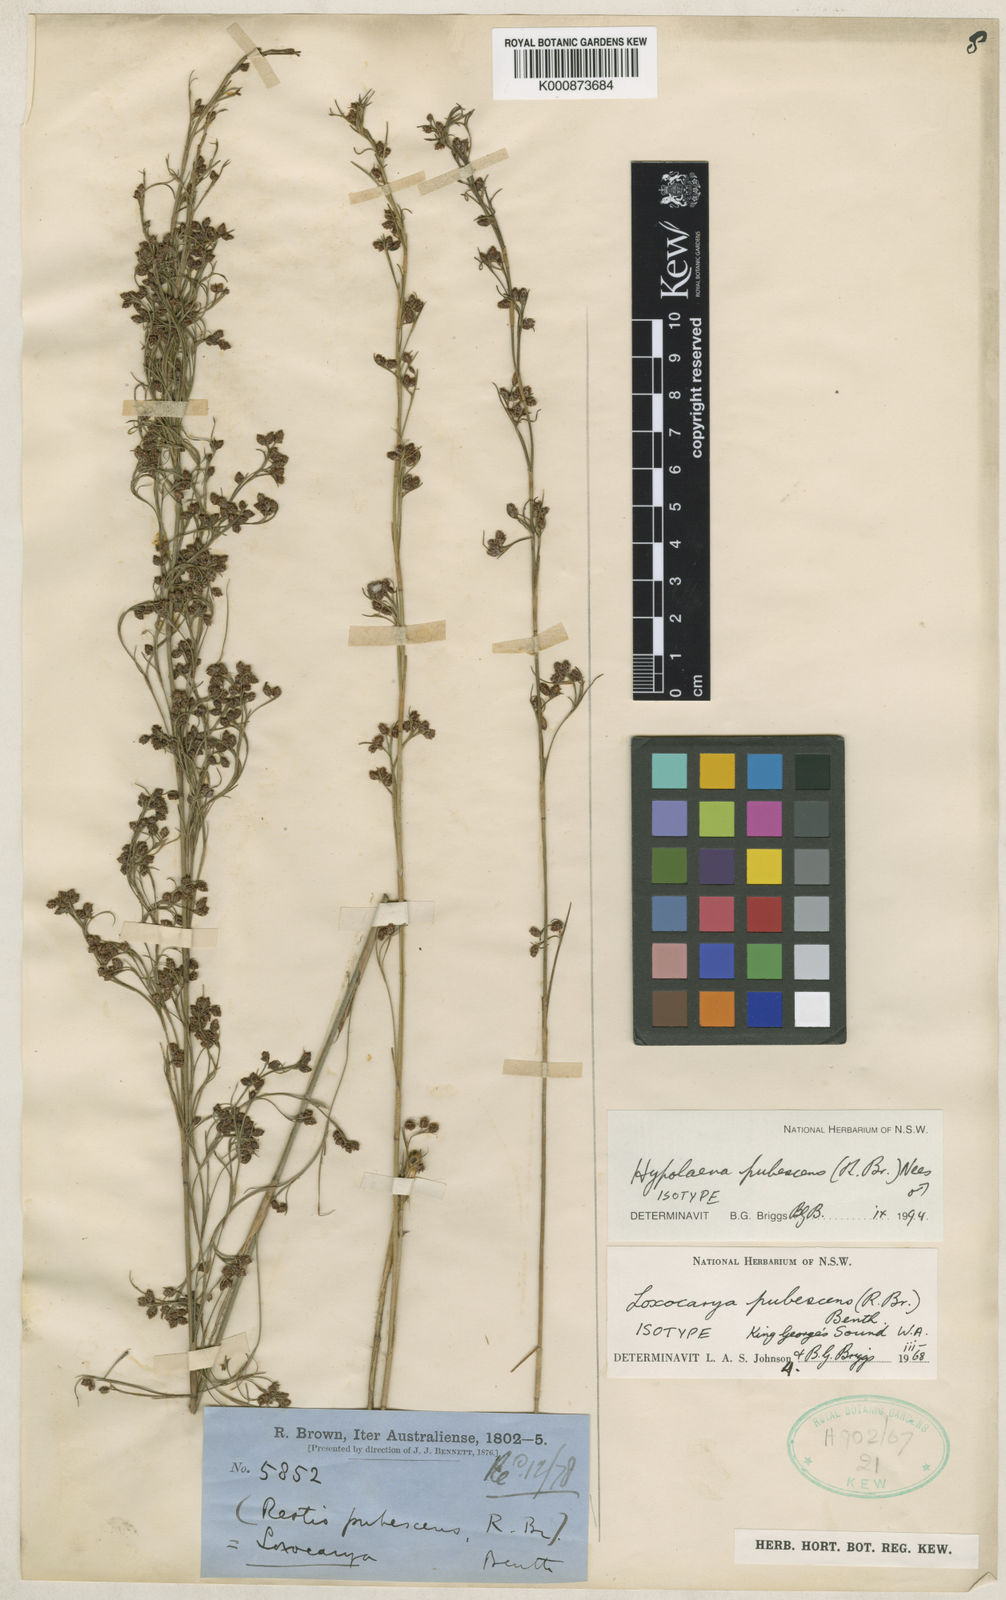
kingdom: Plantae
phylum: Tracheophyta
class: Liliopsida
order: Poales
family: Restionaceae
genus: Hypolaena
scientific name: Hypolaena pubescens
